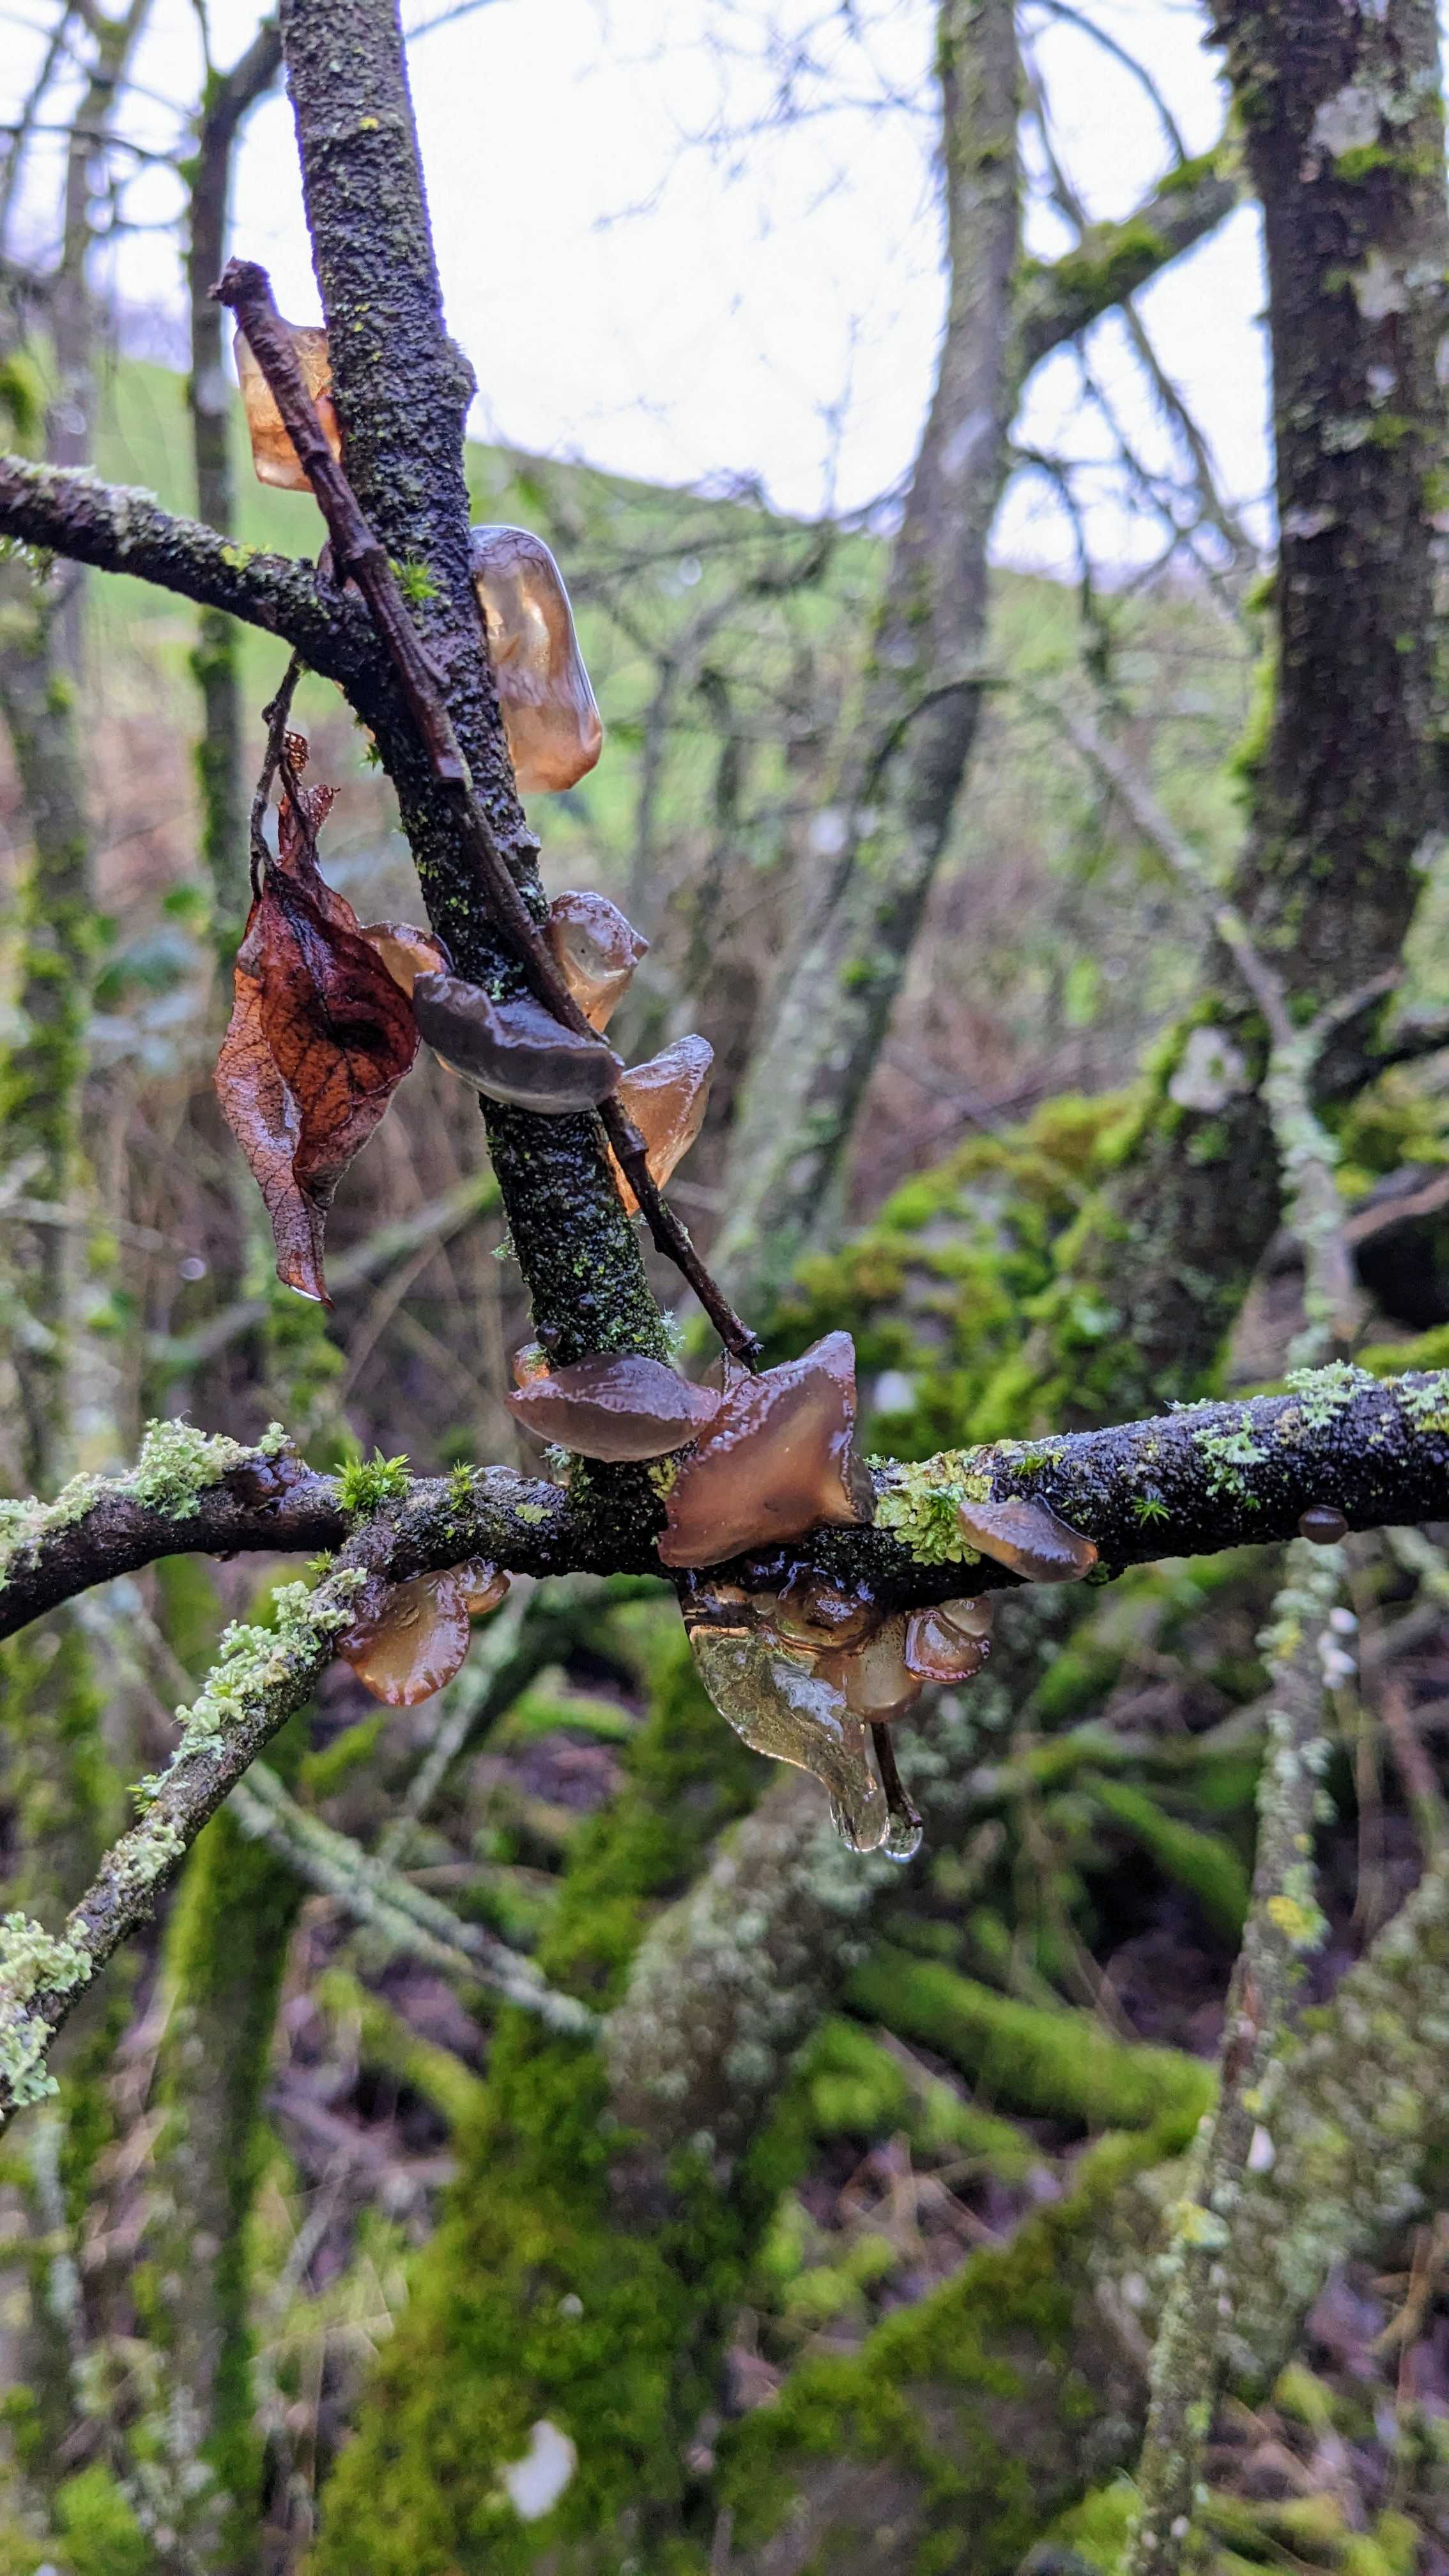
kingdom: Fungi
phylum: Basidiomycota
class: Agaricomycetes
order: Auriculariales
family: Auriculariaceae
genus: Exidia
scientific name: Exidia recisa
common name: pile-bævretop
